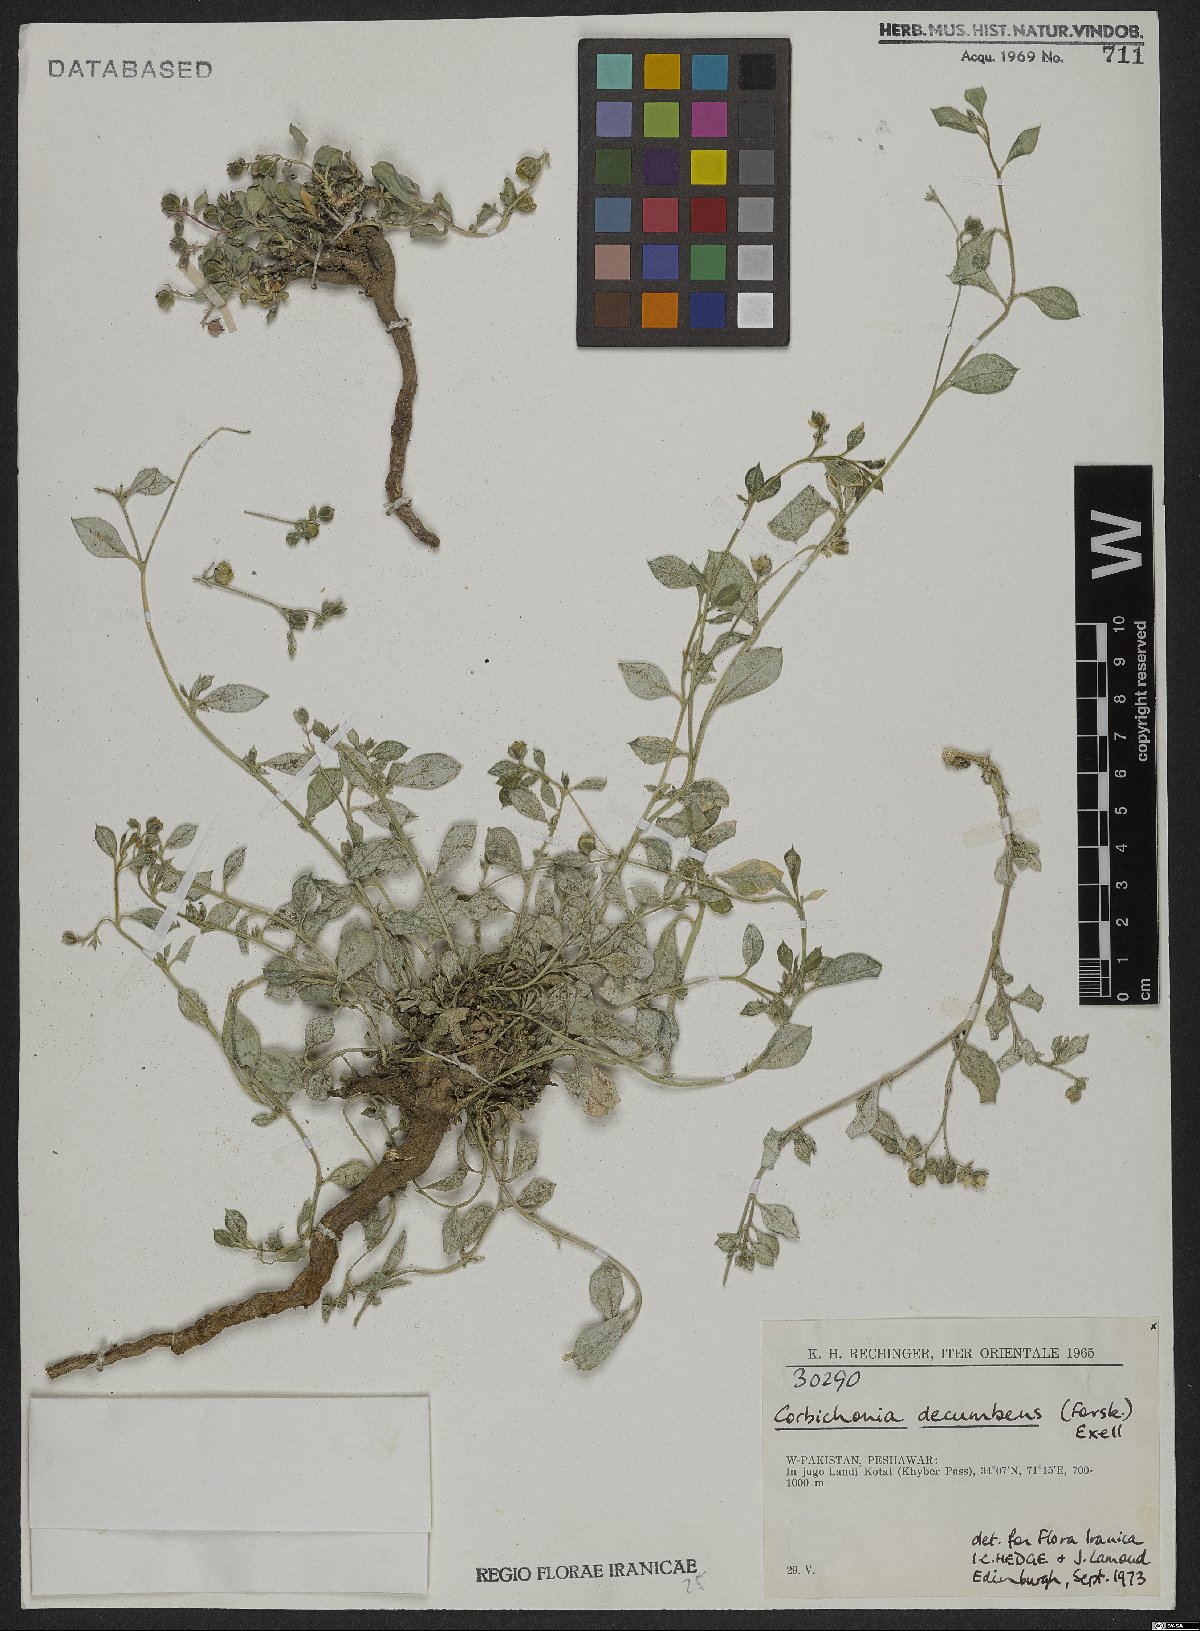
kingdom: Plantae
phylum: Tracheophyta
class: Magnoliopsida
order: Caryophyllales
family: Corbichoniaceae
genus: Corbichonia
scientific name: Corbichonia decumbens
